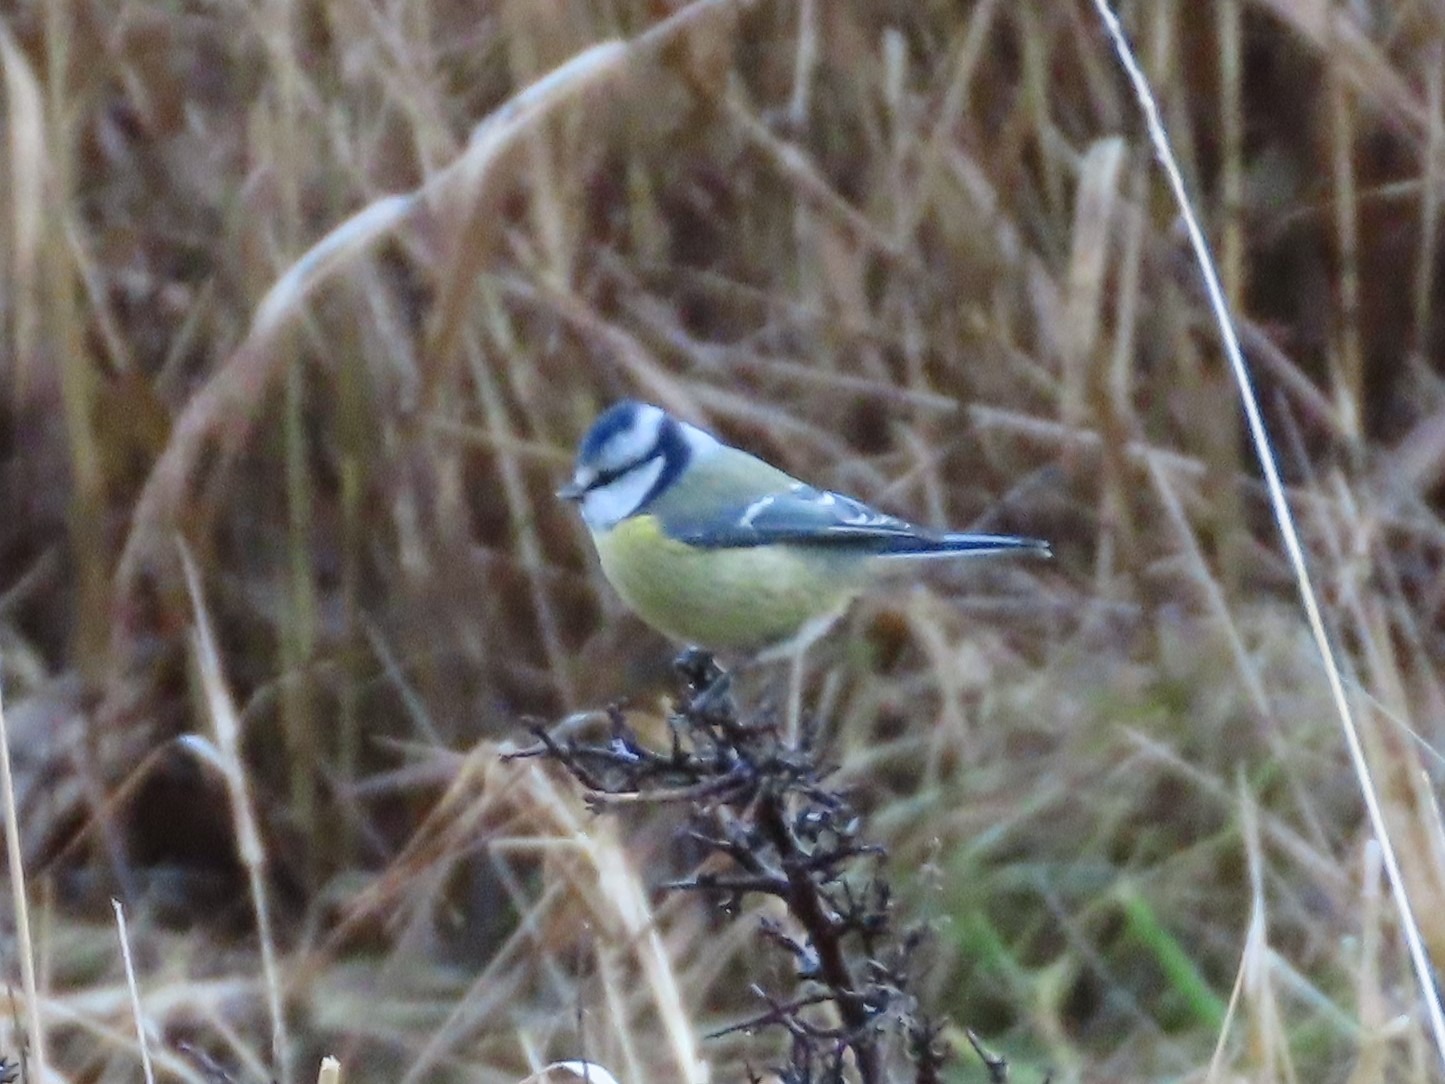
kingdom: Animalia
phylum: Chordata
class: Aves
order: Passeriformes
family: Paridae
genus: Cyanistes
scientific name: Cyanistes caeruleus
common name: Blåmejse
